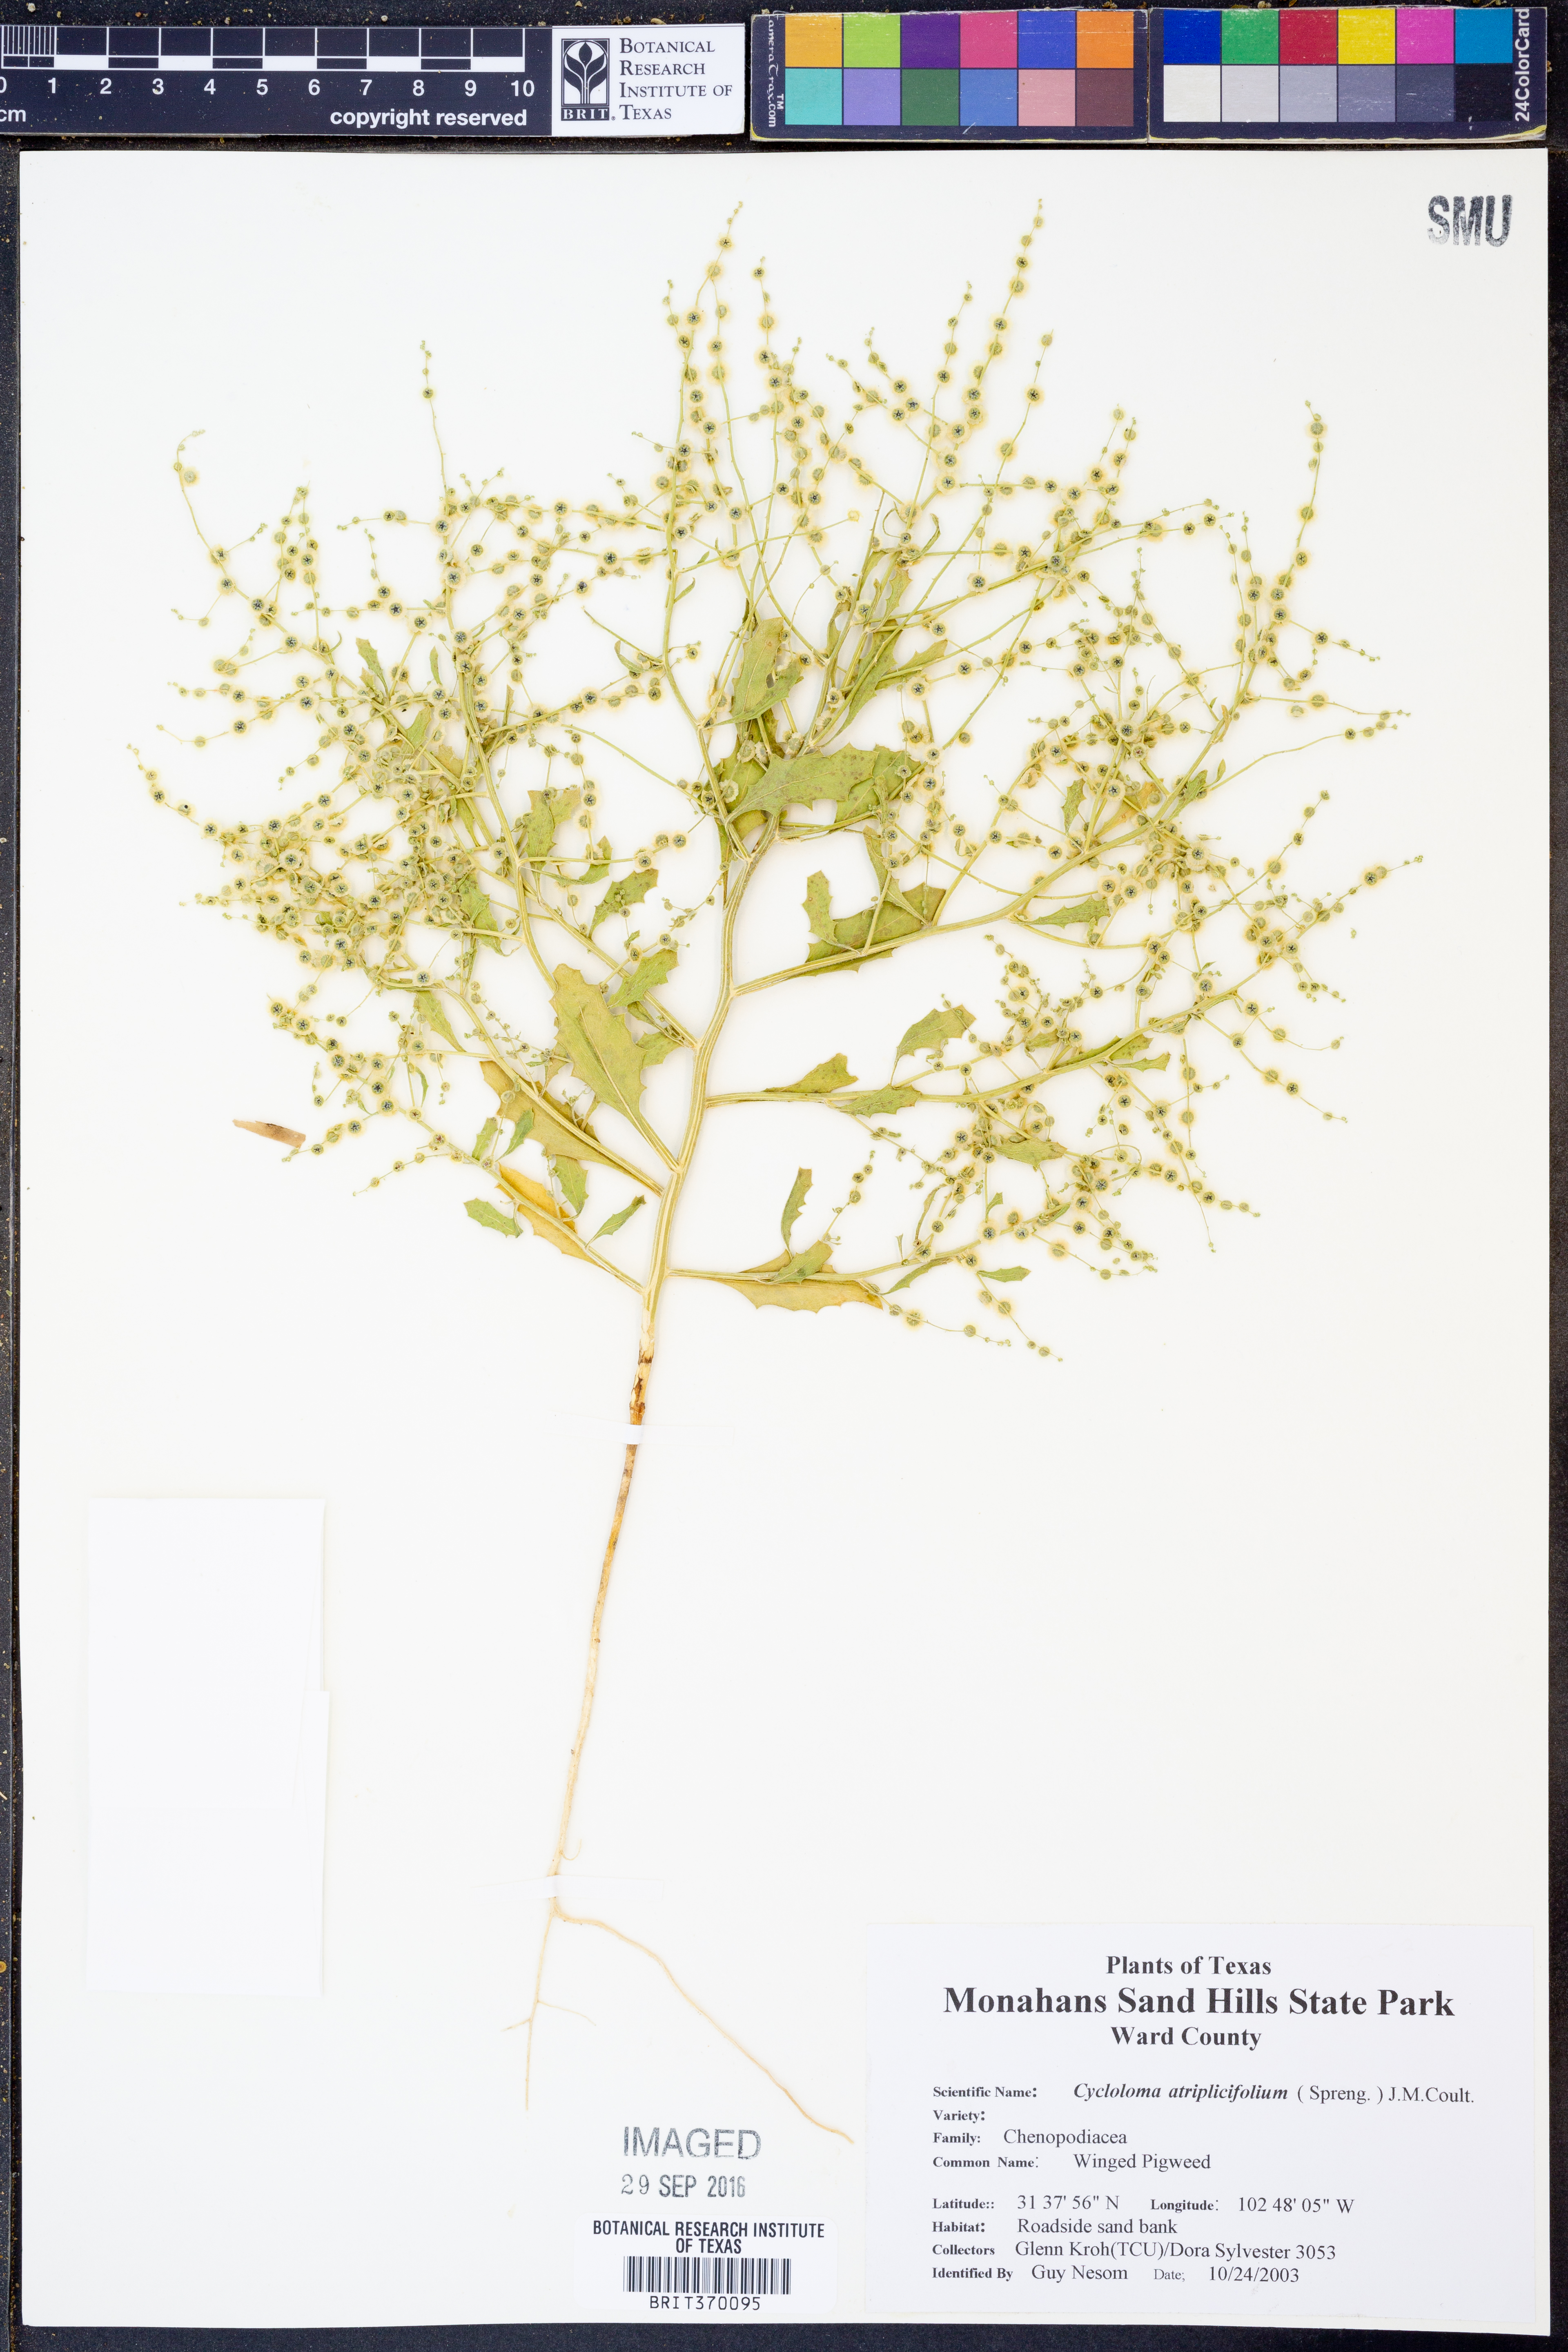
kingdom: Plantae
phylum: Tracheophyta
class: Magnoliopsida
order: Caryophyllales
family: Amaranthaceae
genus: Dysphania
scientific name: Dysphania atriplicifolia
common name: Plains tumbleweed
